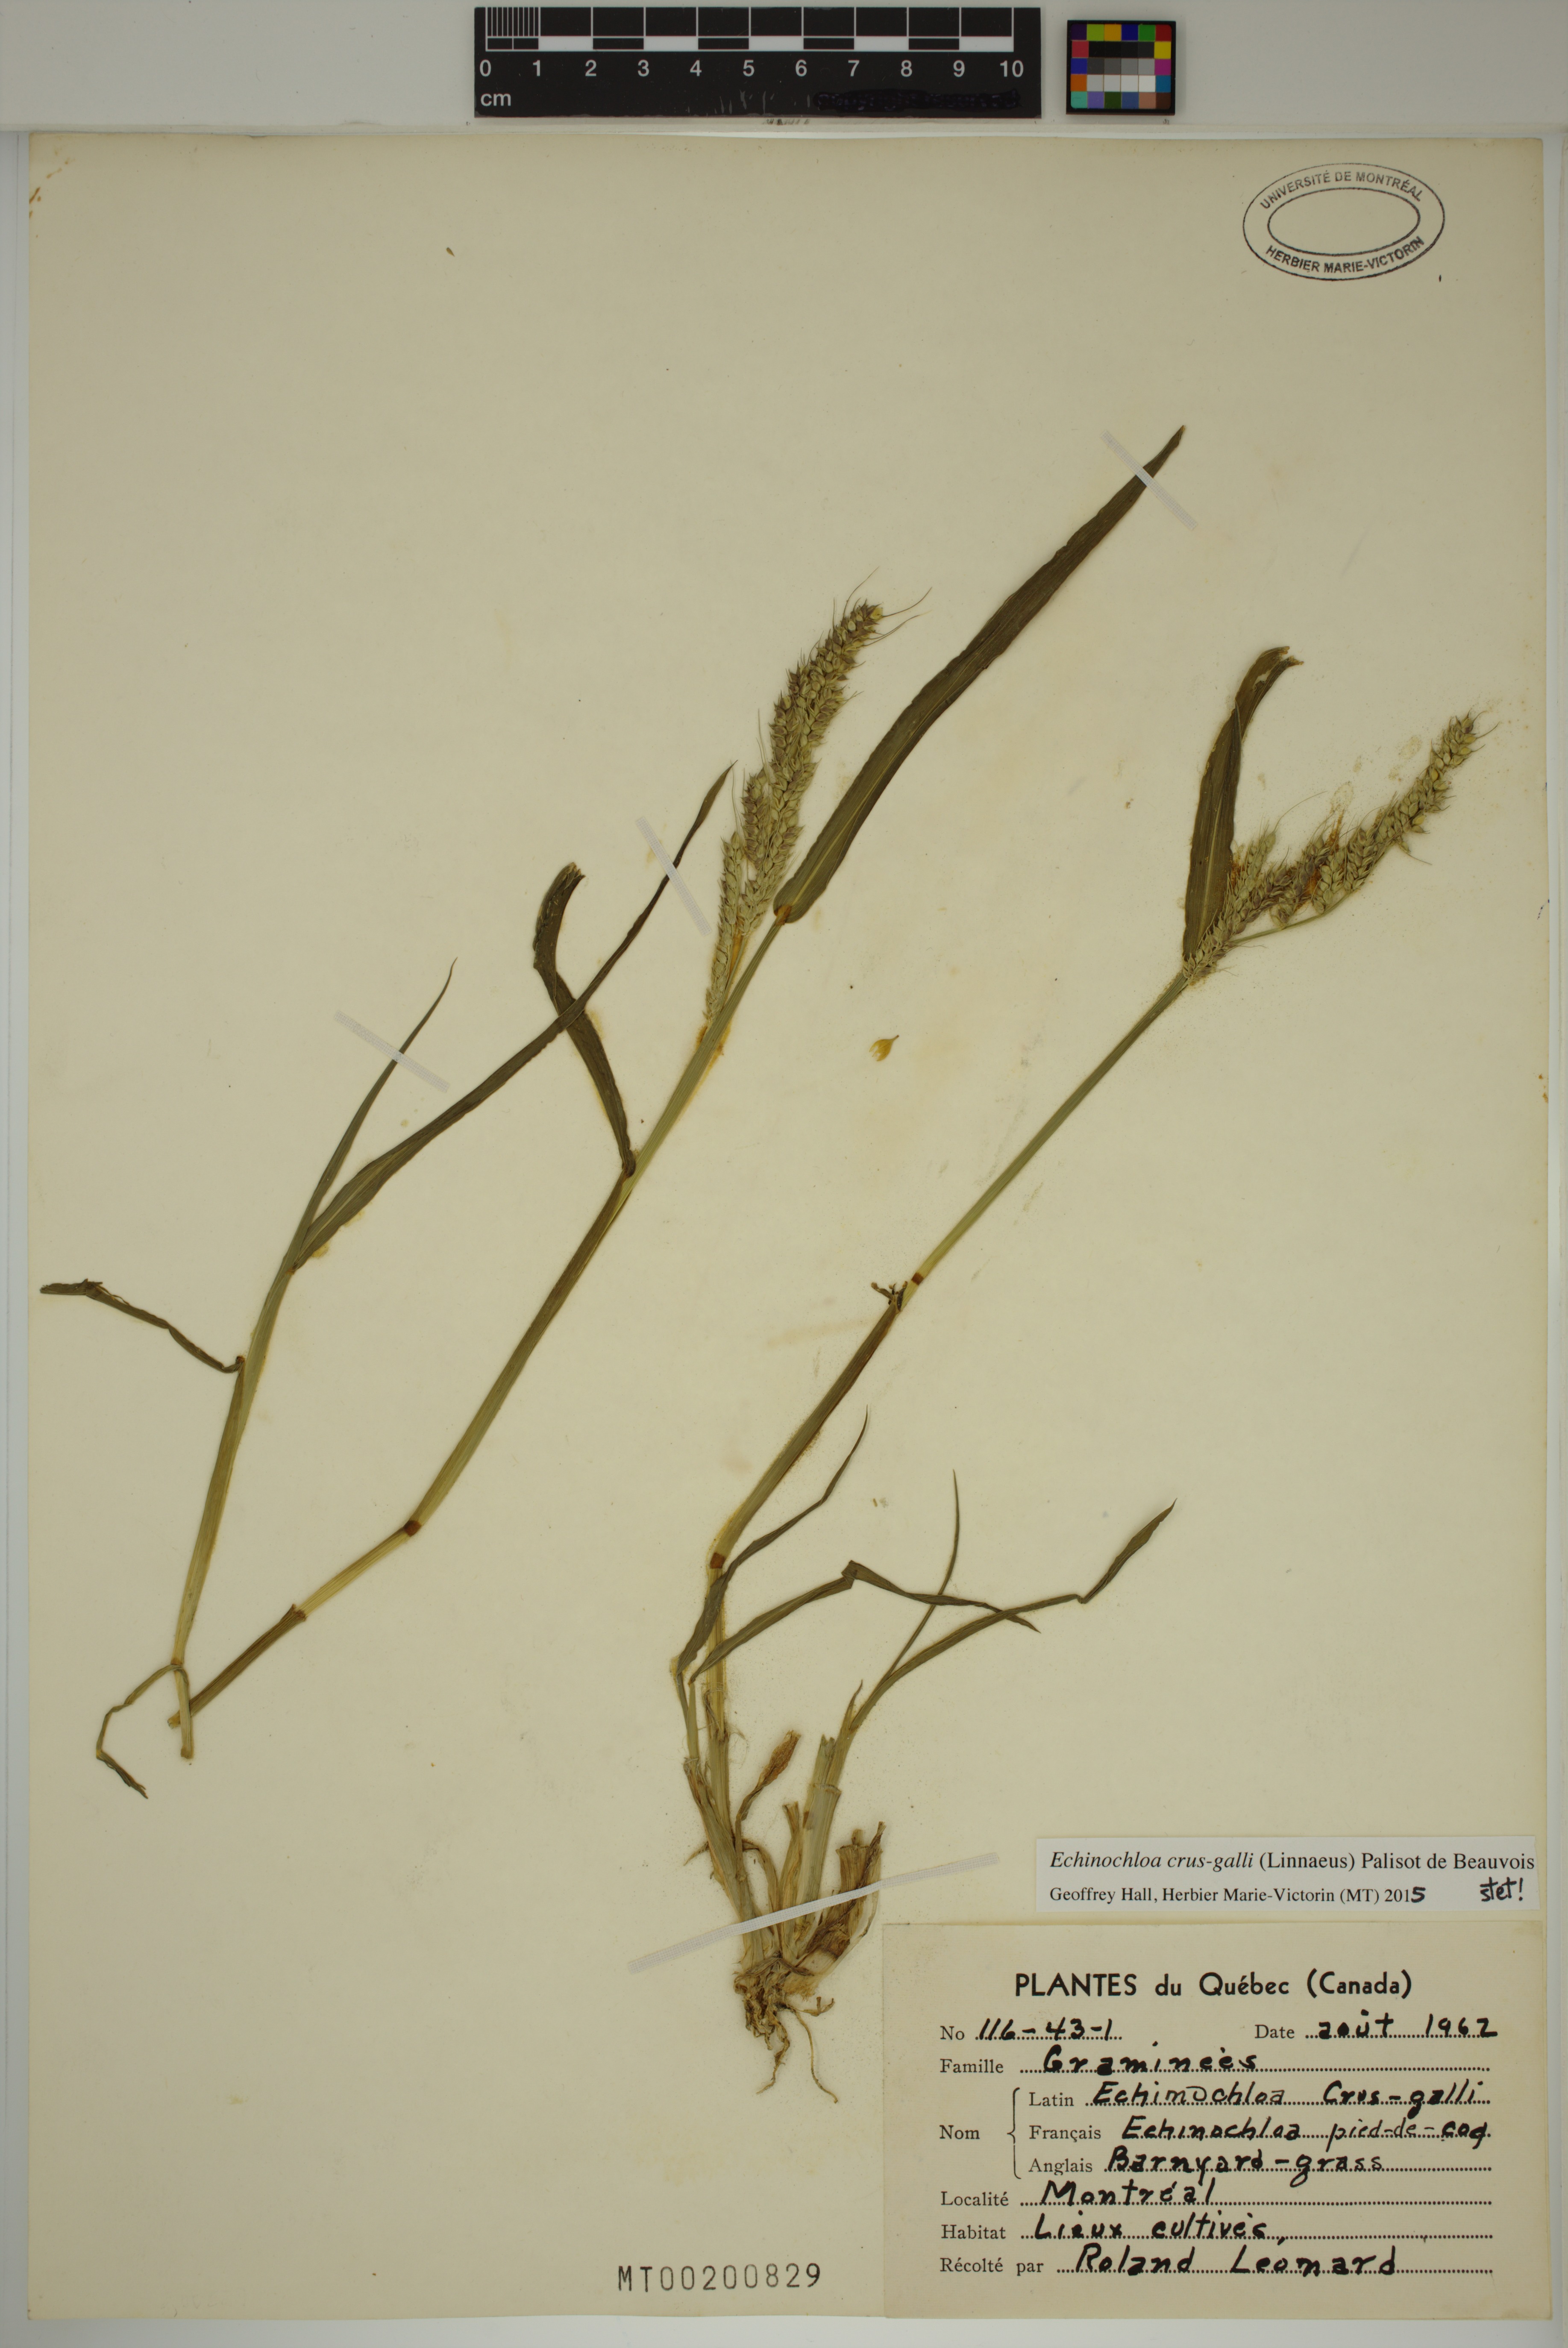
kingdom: Plantae
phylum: Tracheophyta
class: Liliopsida
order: Poales
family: Poaceae
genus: Echinochloa
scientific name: Echinochloa crus-galli
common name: Cockspur
